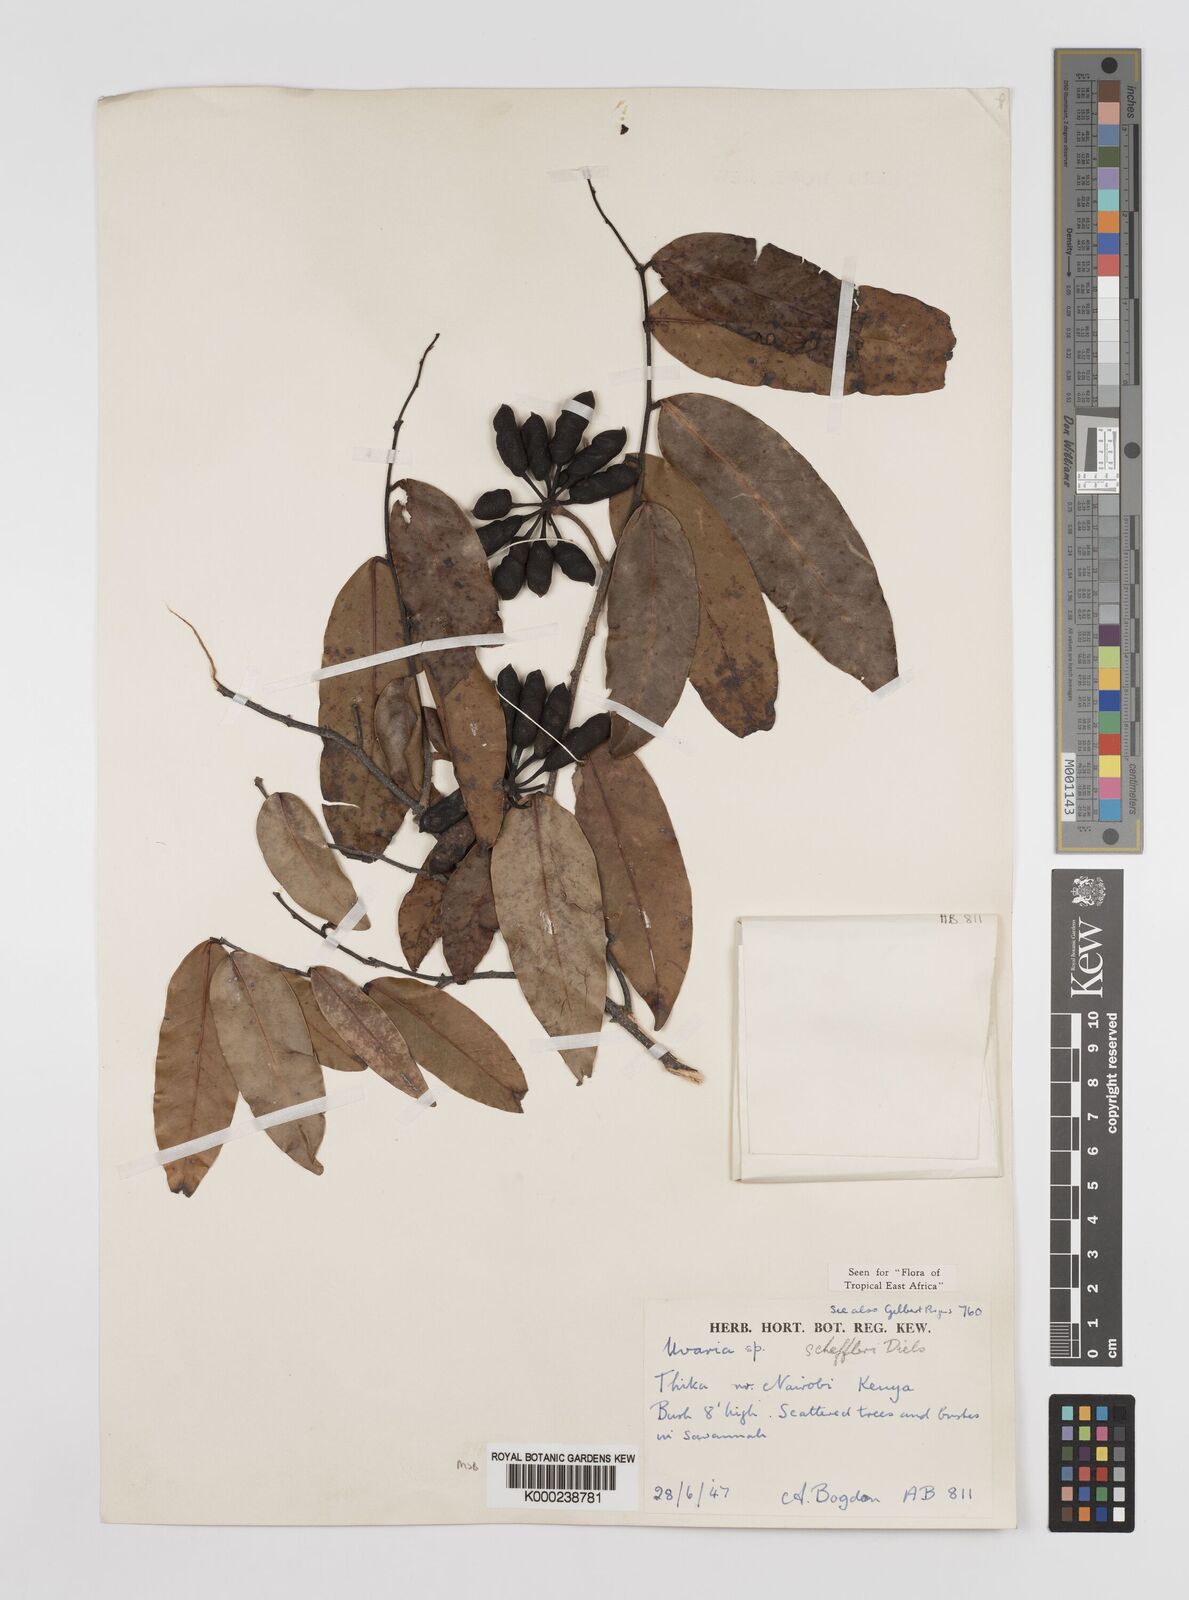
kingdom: Plantae
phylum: Tracheophyta
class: Magnoliopsida
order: Magnoliales
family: Annonaceae
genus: Uvaria
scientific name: Uvaria scheffleri
